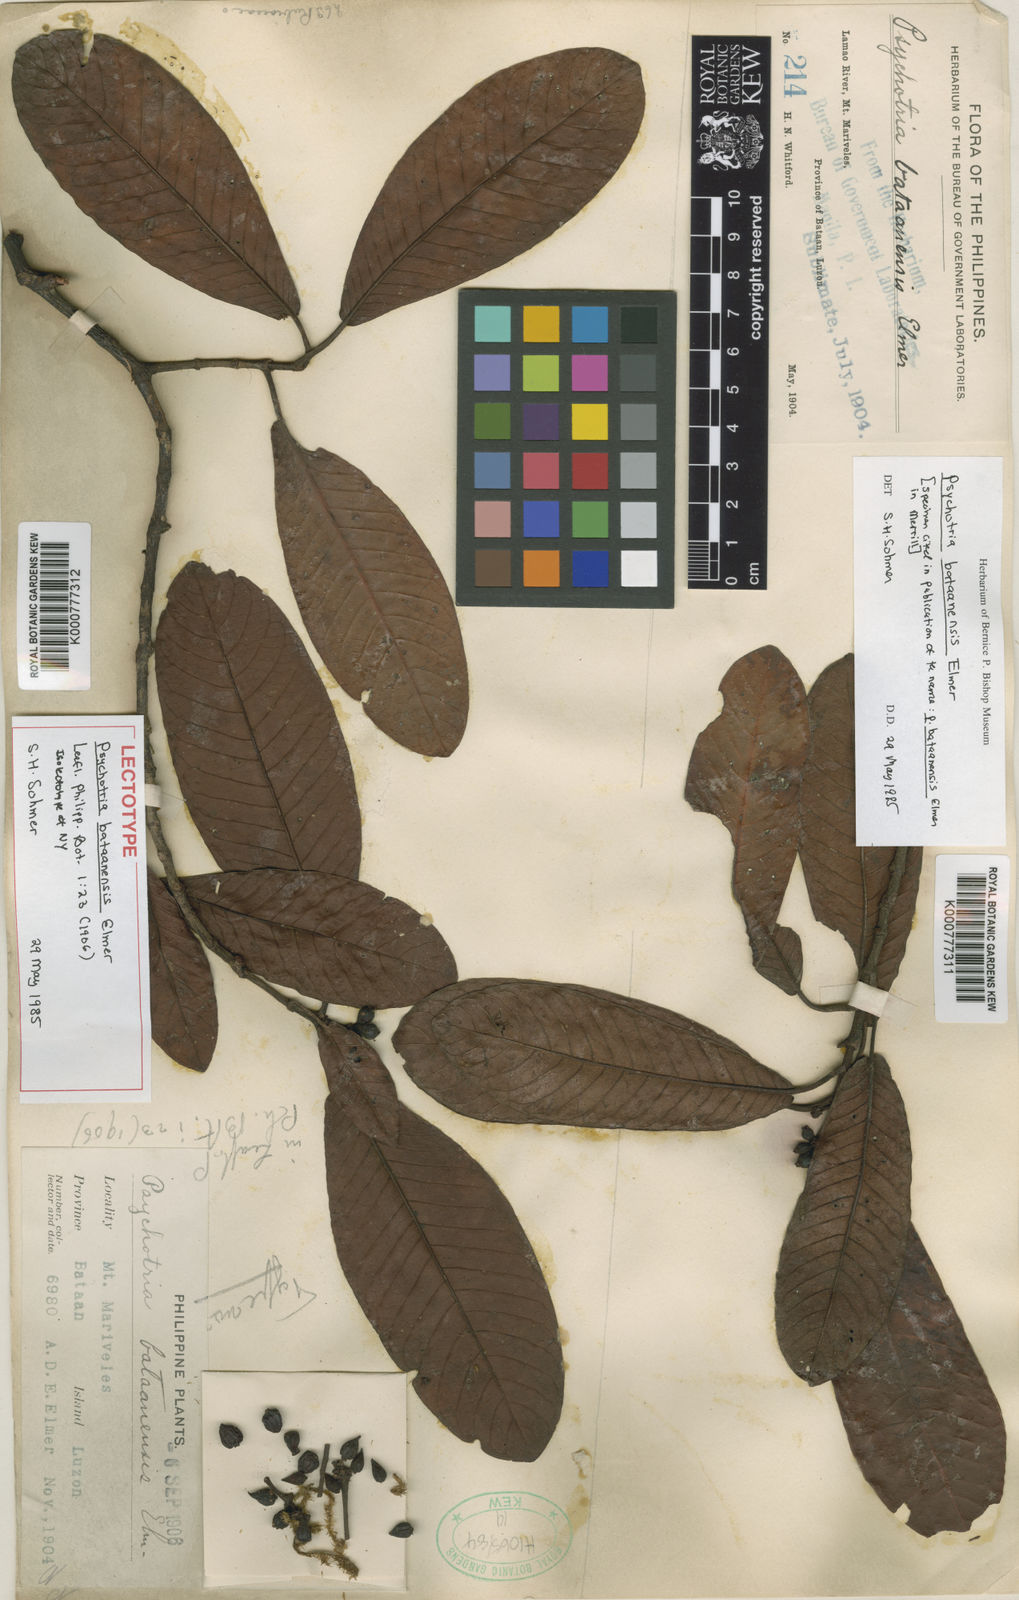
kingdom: Plantae
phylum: Tracheophyta
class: Magnoliopsida
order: Gentianales
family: Rubiaceae
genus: Psychotria
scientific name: Psychotria bataanensis
